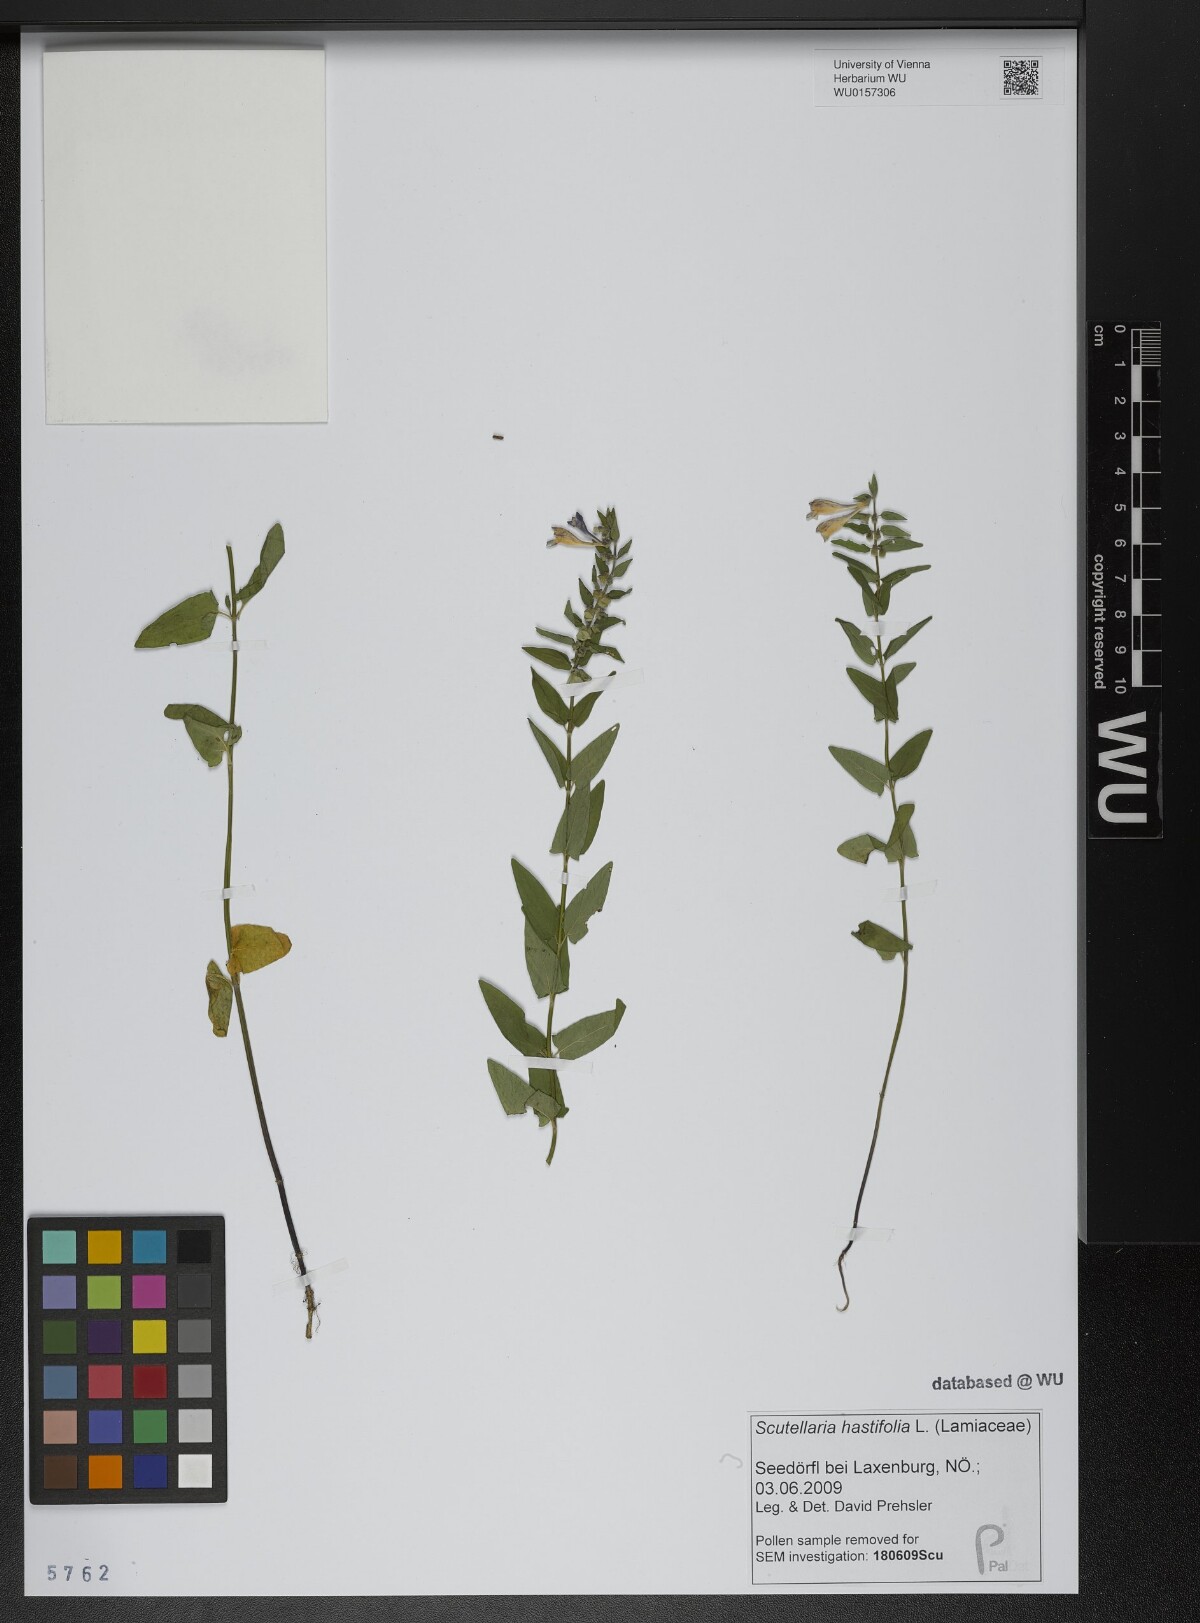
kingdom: Plantae
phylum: Tracheophyta
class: Magnoliopsida
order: Lamiales
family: Lamiaceae
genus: Scutellaria
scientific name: Scutellaria hastifolia
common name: Norfolk skullcap
